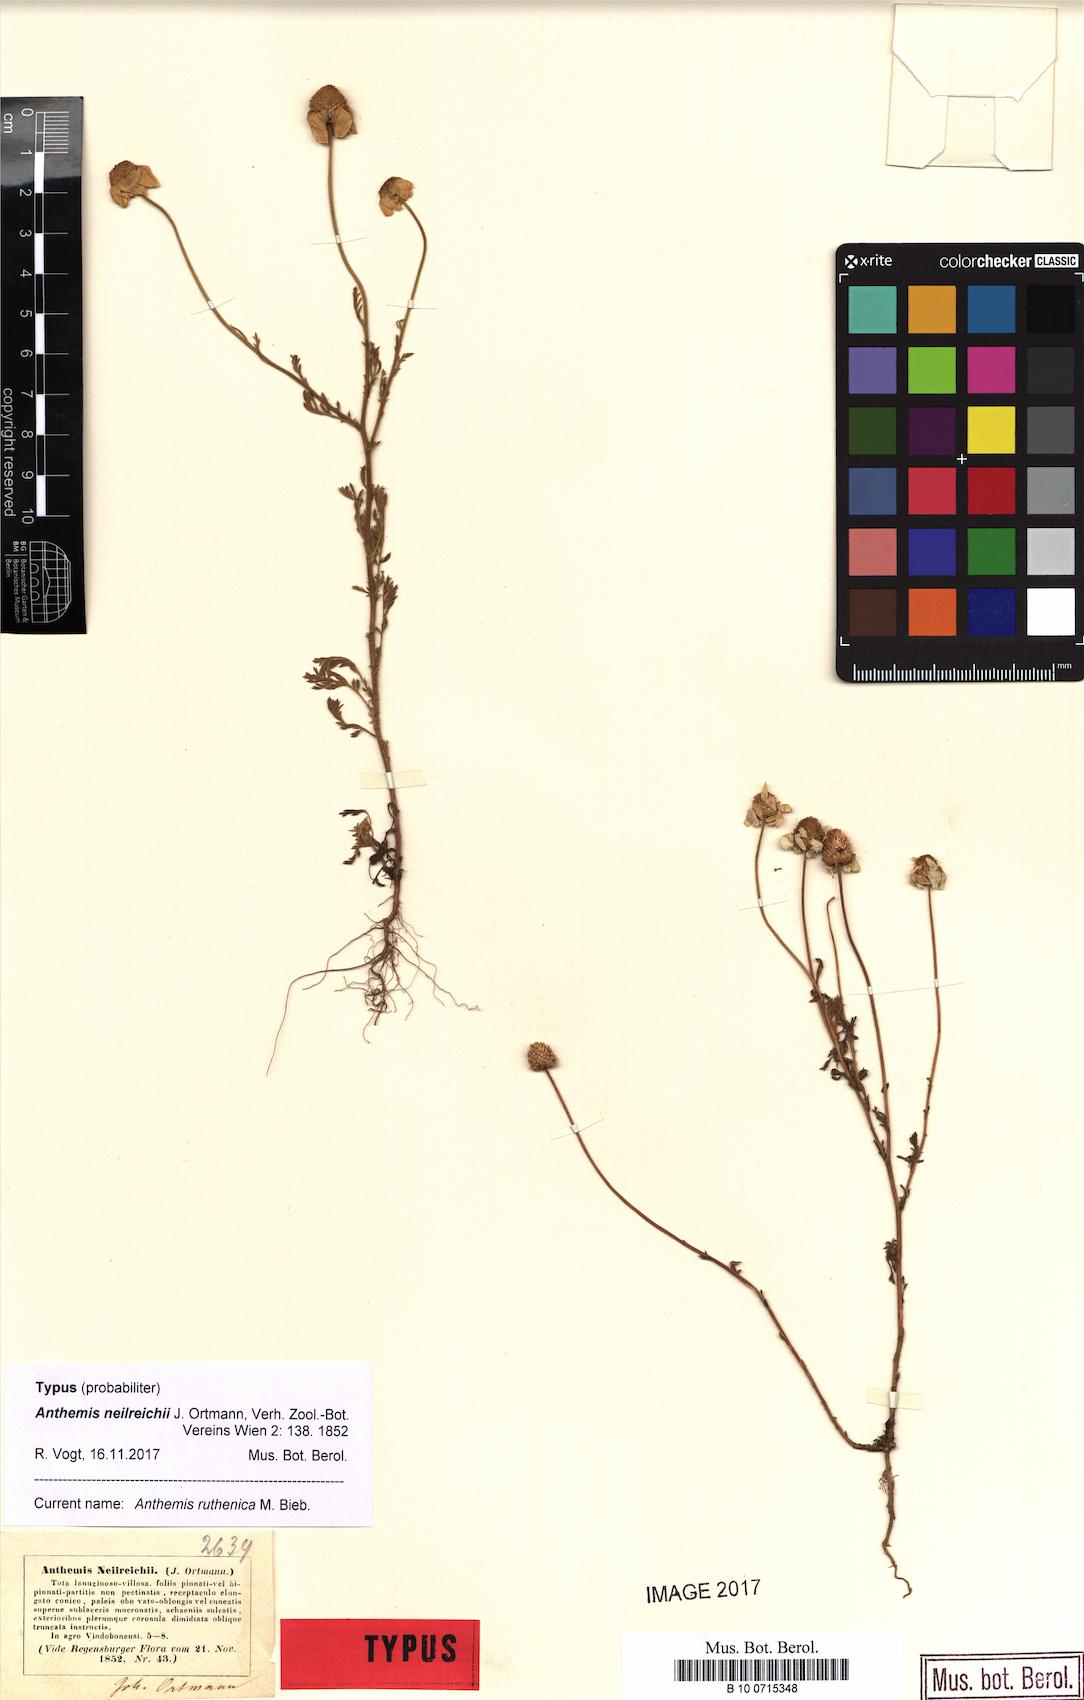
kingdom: Plantae
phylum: Tracheophyta
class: Magnoliopsida
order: Asterales
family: Asteraceae
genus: Anthemis
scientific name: Anthemis ruthenica
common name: Eastern chamomile
